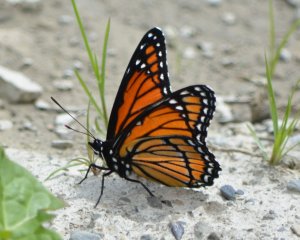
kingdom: Animalia
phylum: Arthropoda
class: Insecta
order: Lepidoptera
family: Nymphalidae
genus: Limenitis
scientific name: Limenitis archippus
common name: Viceroy
